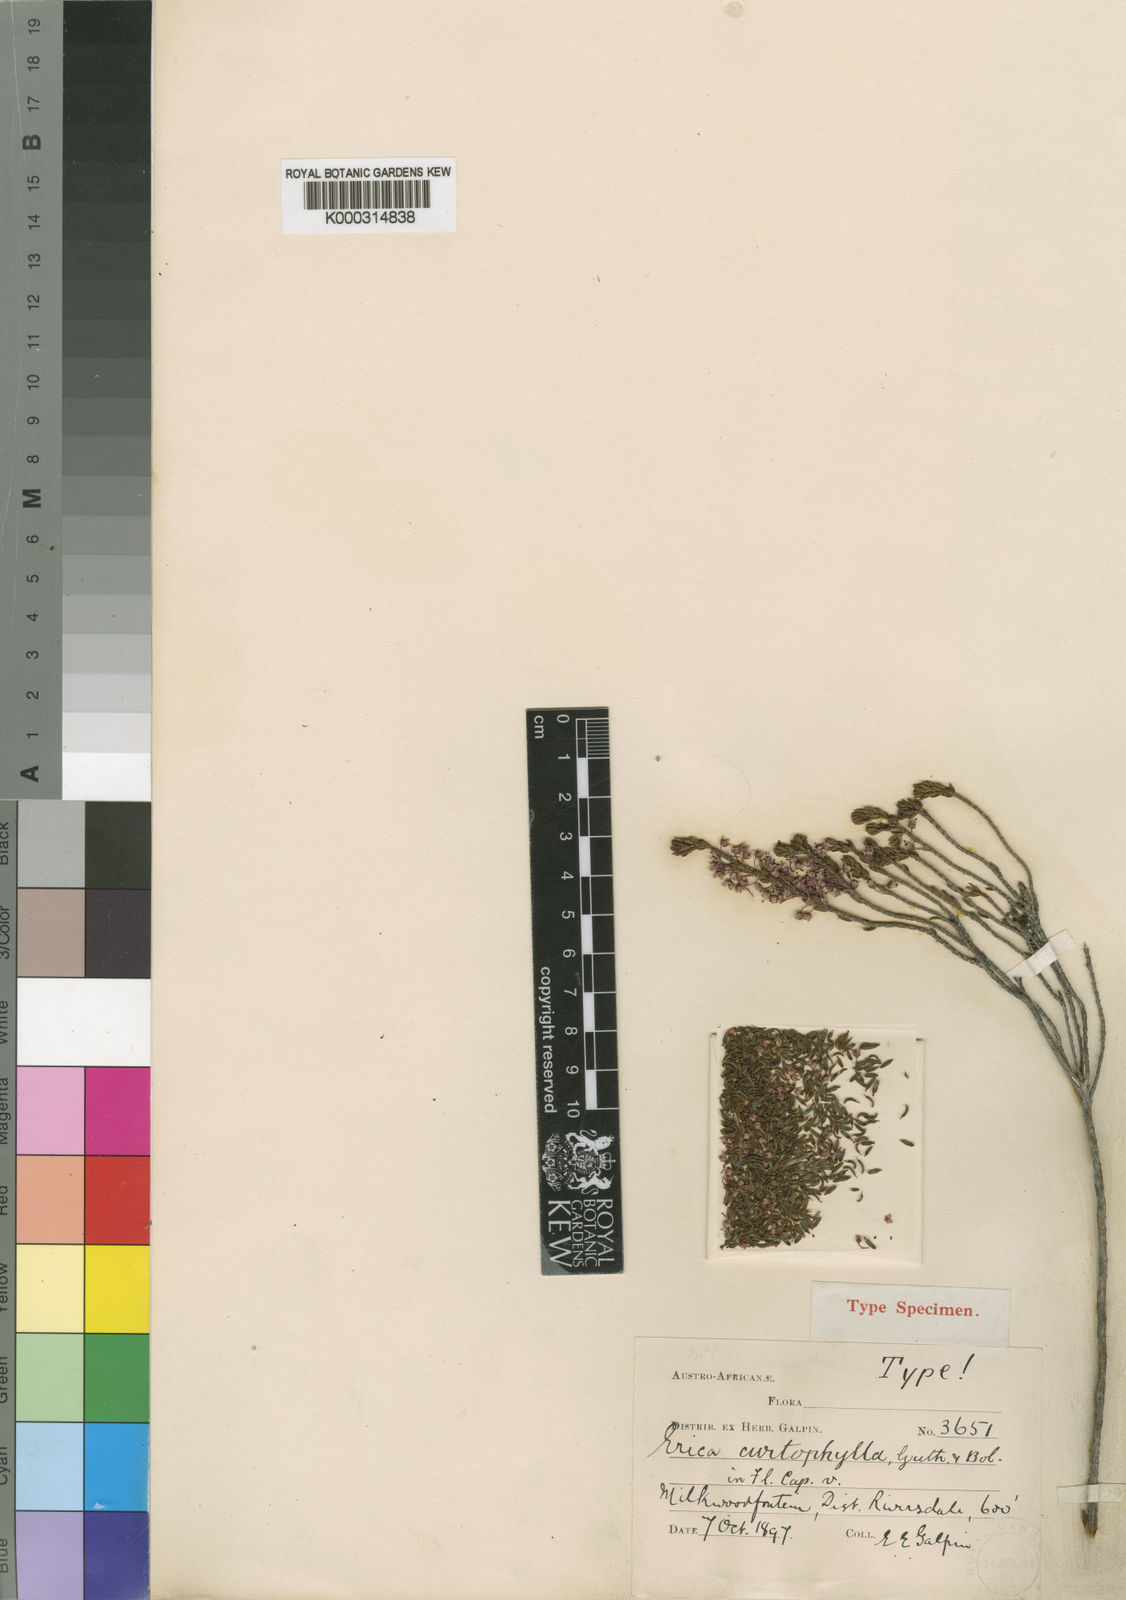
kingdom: Plantae
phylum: Tracheophyta
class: Magnoliopsida
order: Ericales
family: Ericaceae
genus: Erica
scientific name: Erica curtophylla
